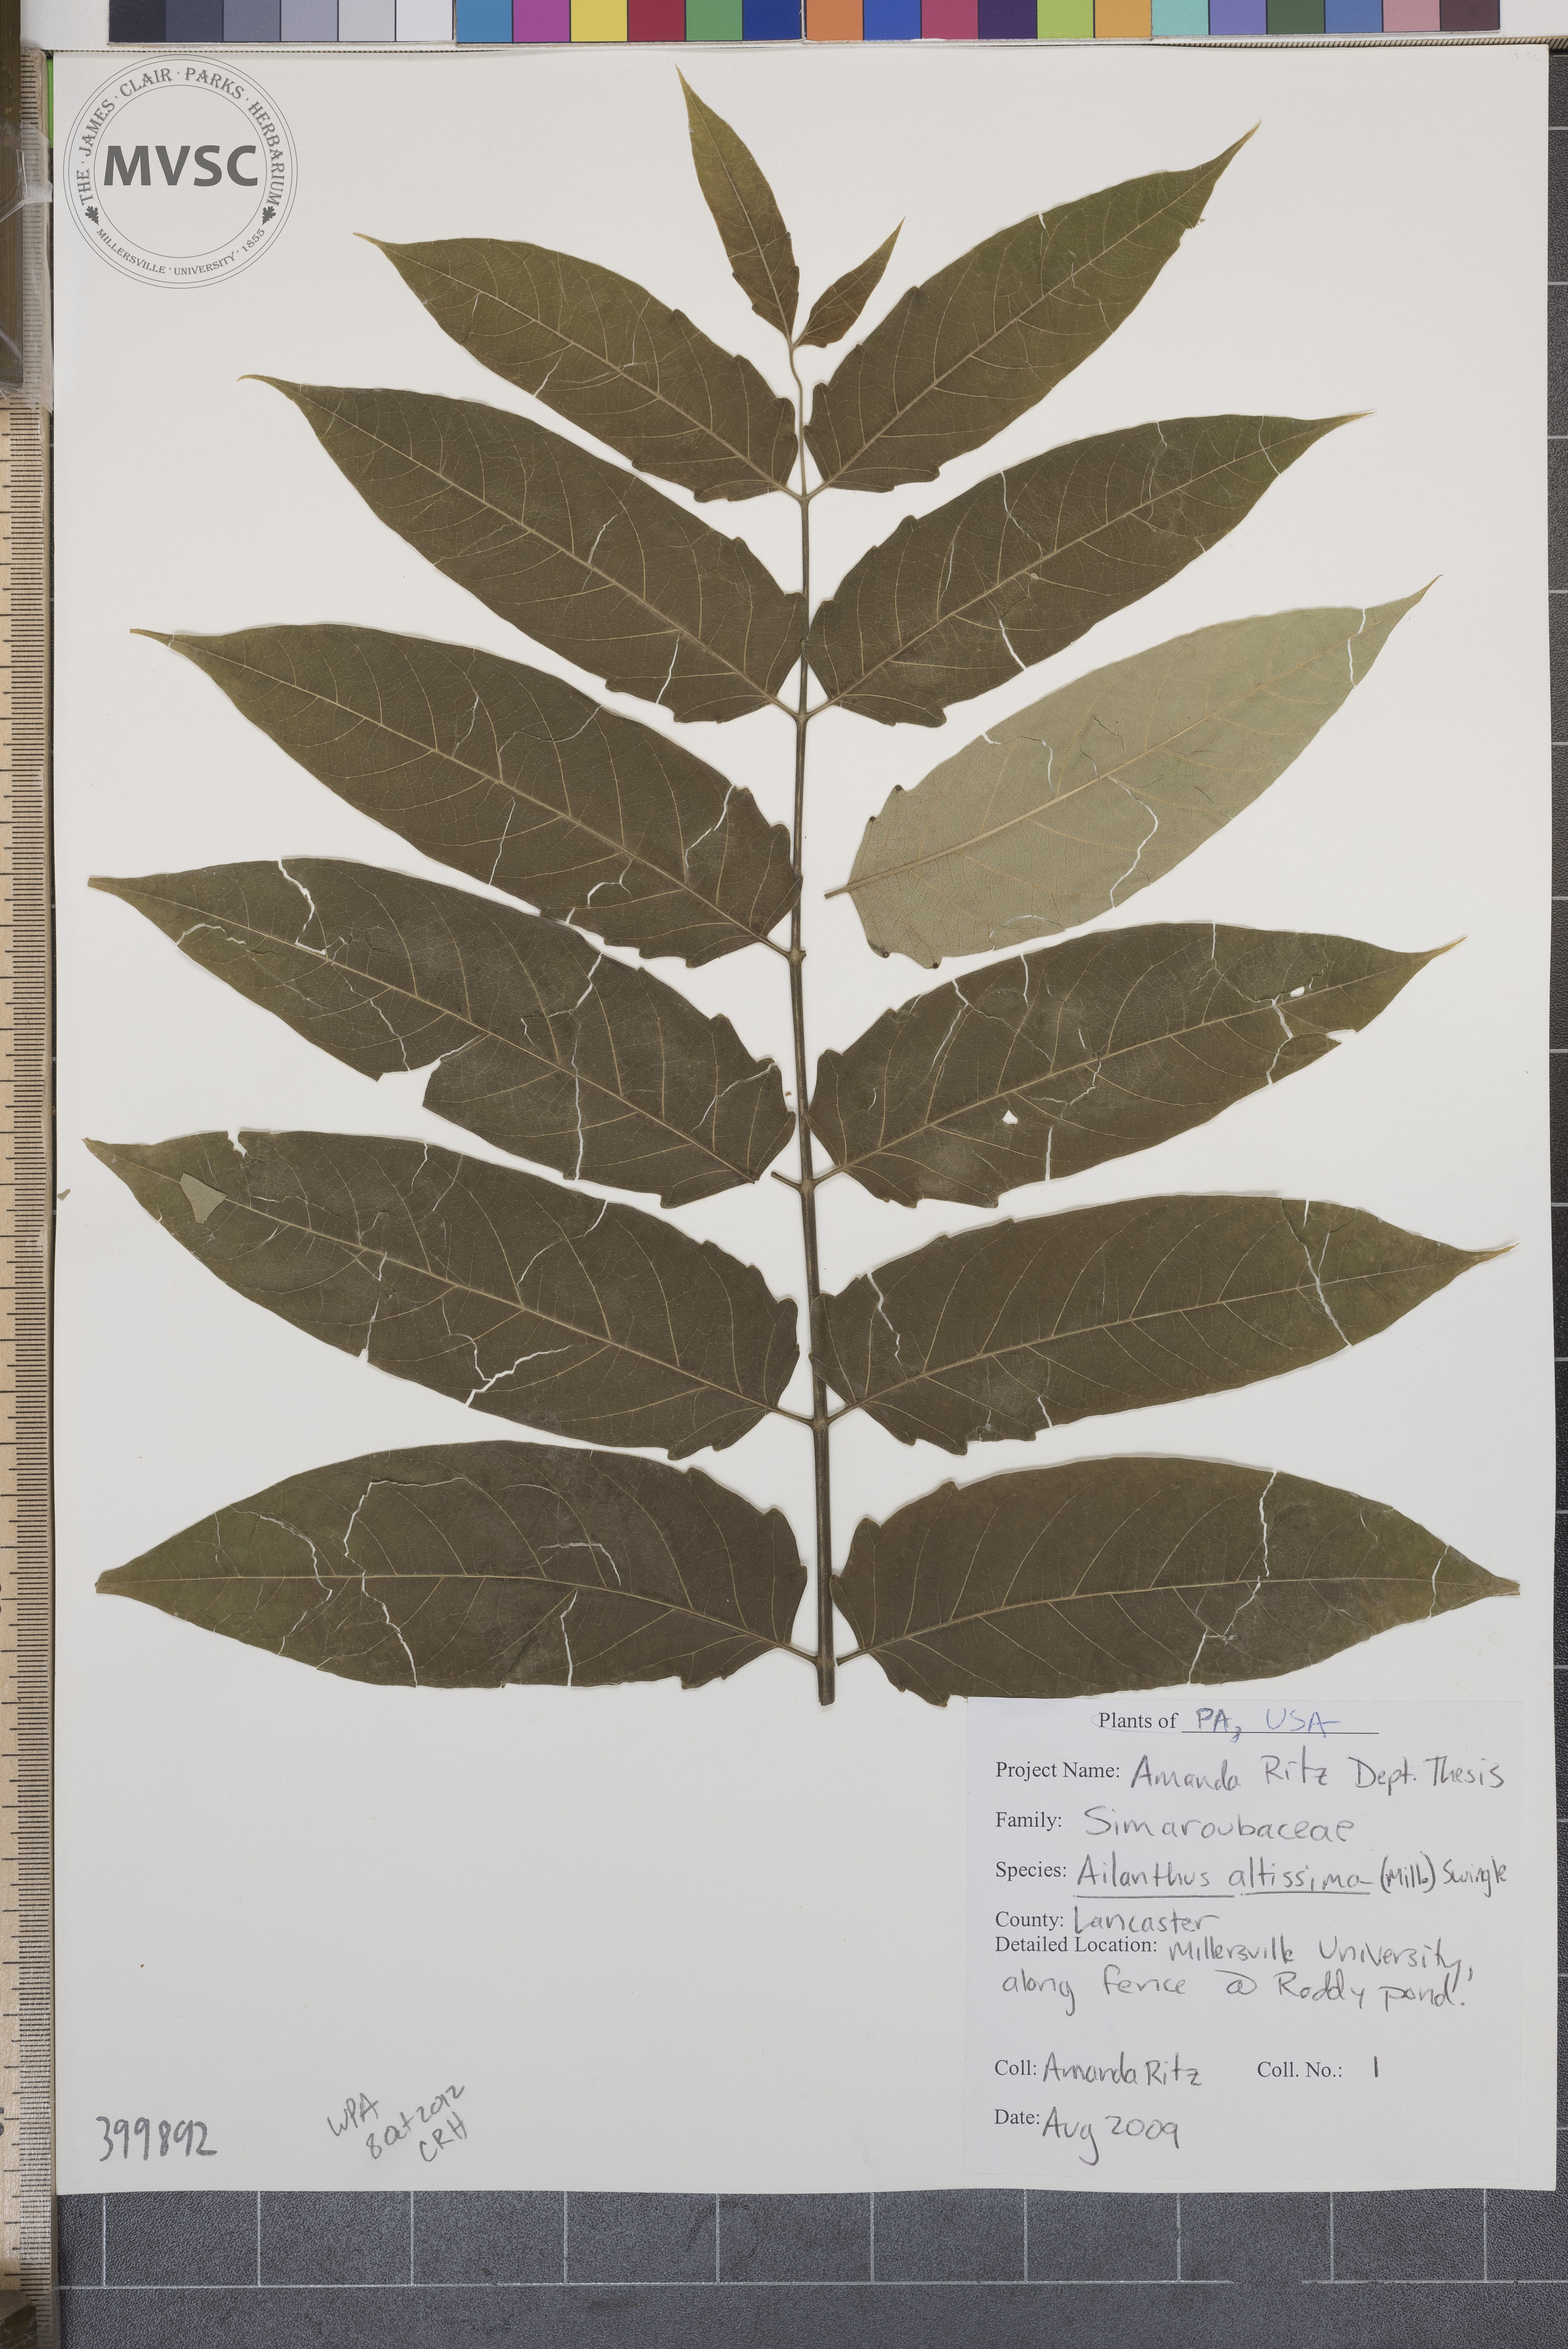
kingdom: Plantae
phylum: Tracheophyta
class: Magnoliopsida
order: Sapindales
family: Simaroubaceae
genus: Ailanthus
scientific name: Ailanthus altissima
